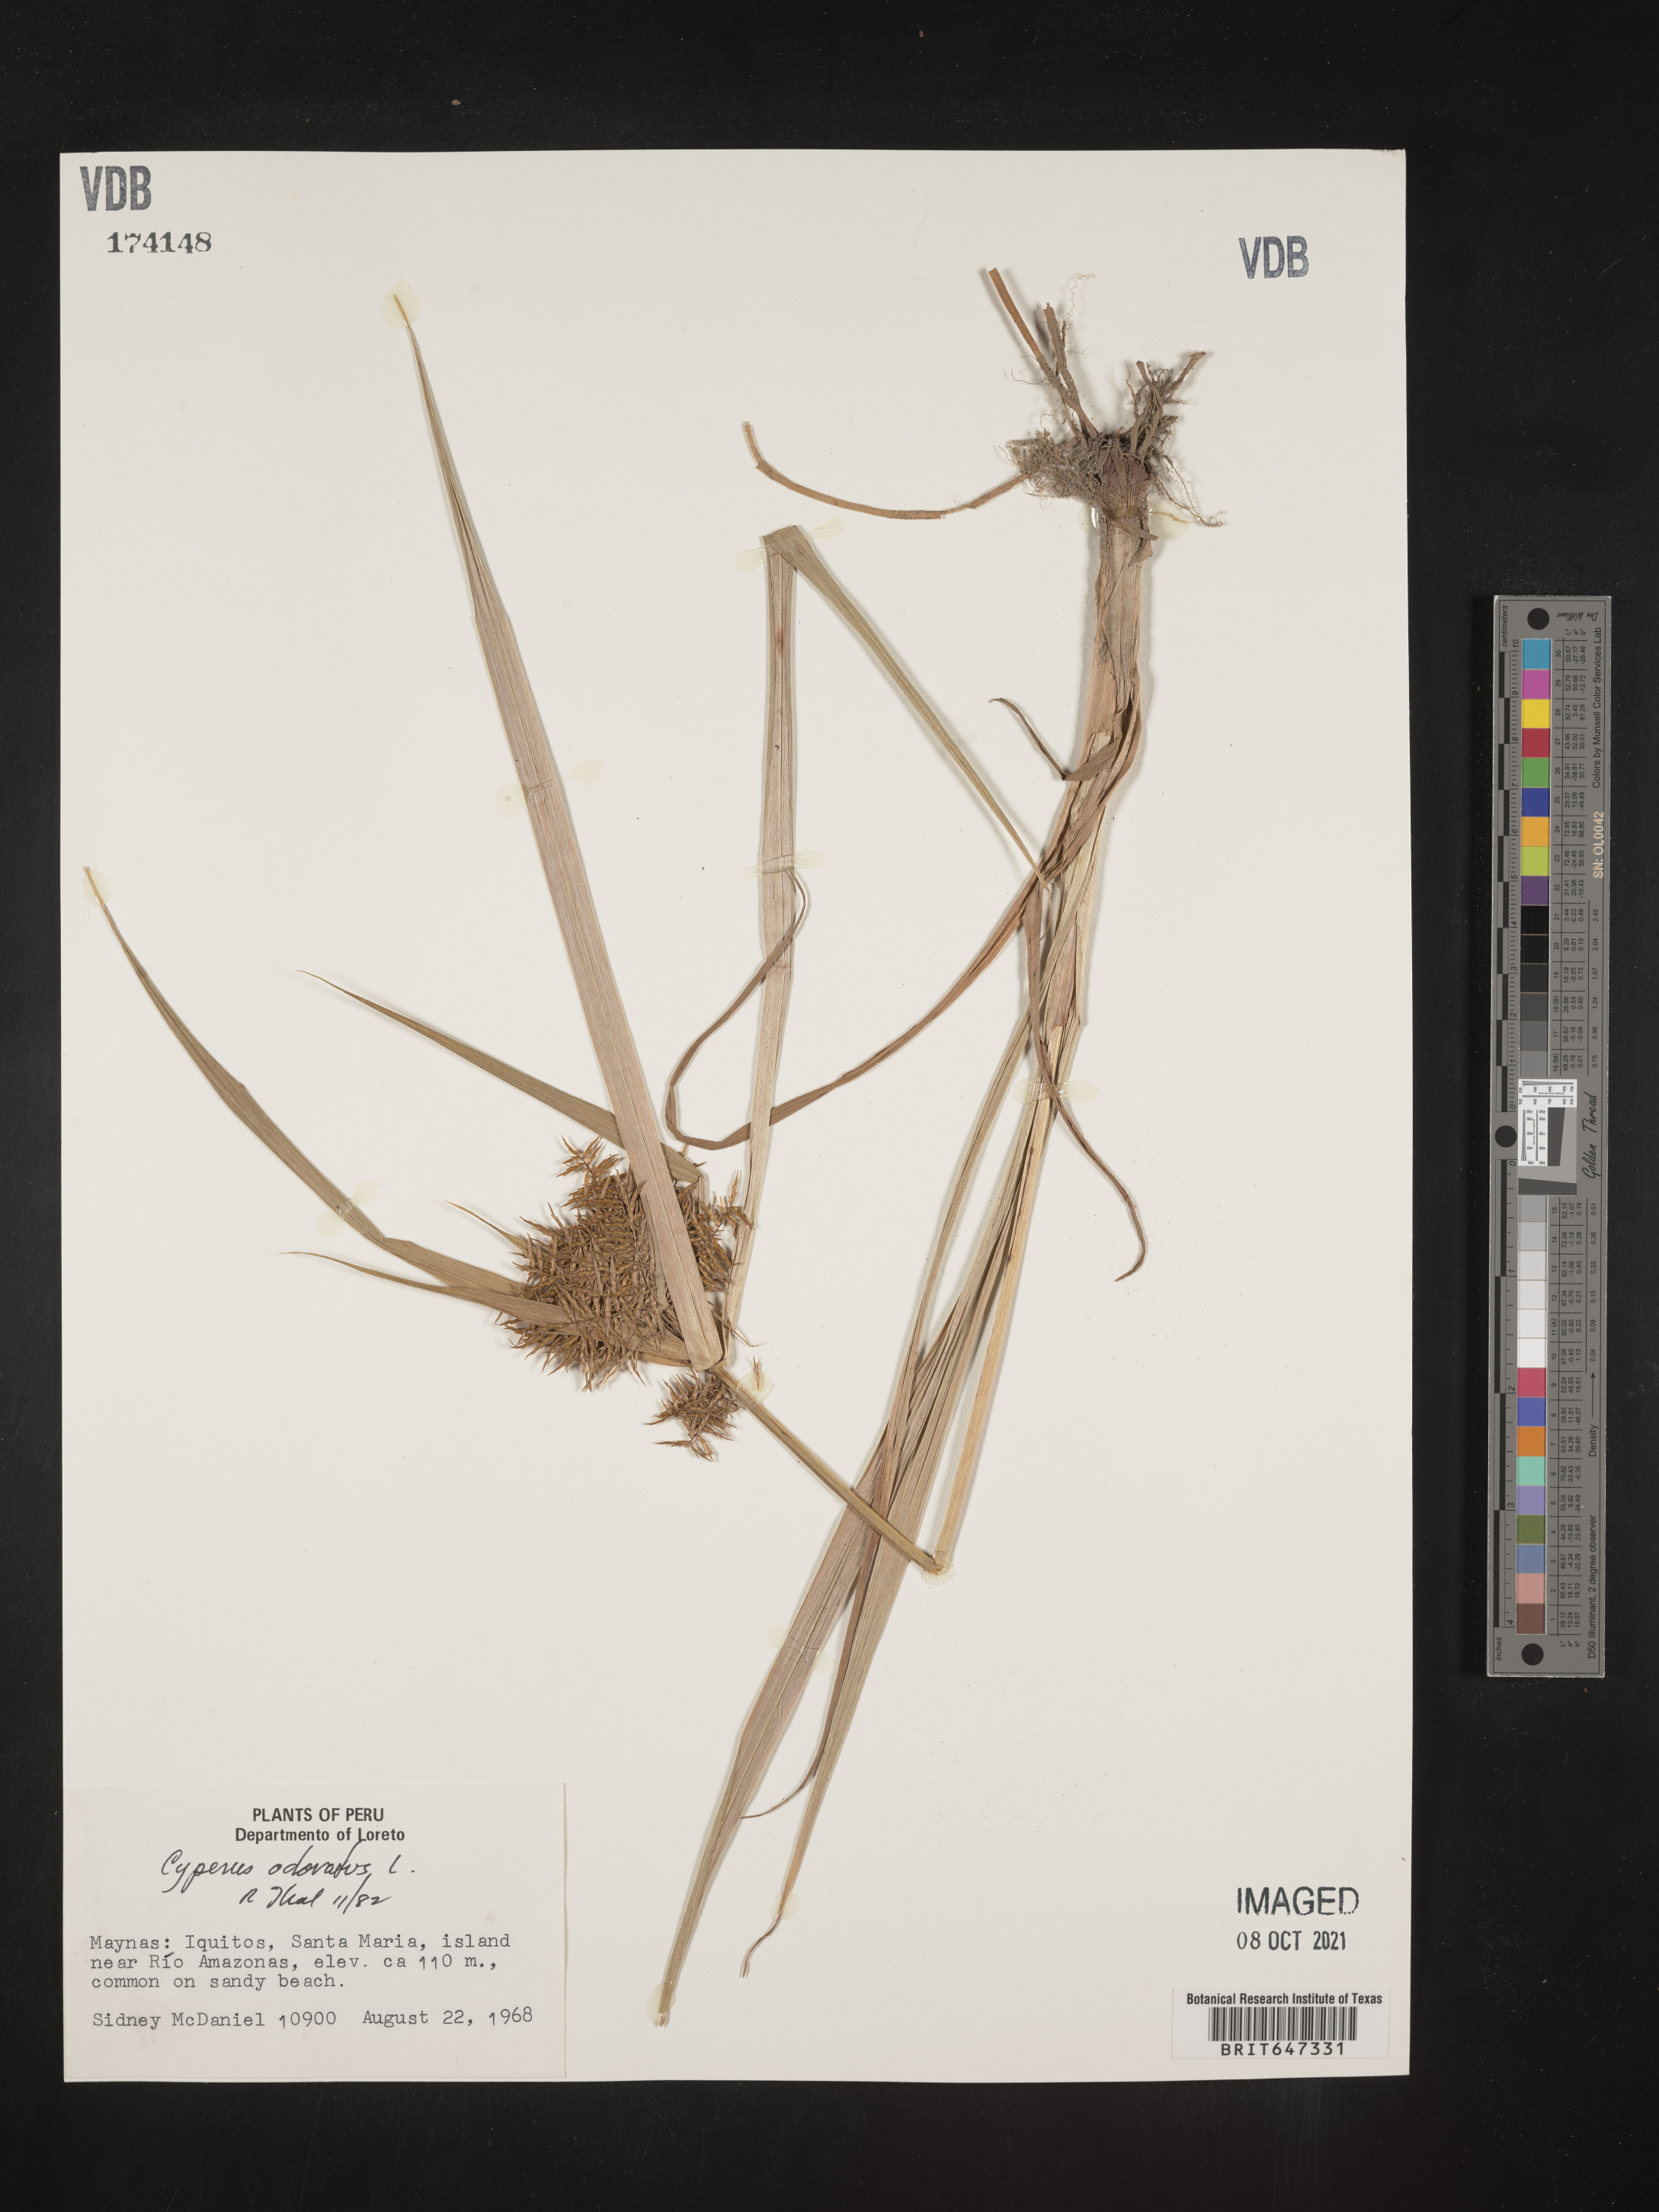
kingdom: Plantae
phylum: Tracheophyta
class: Liliopsida
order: Poales
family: Cyperaceae
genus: Cyperus
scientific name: Cyperus odoratus
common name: Fragrant flatsedge
